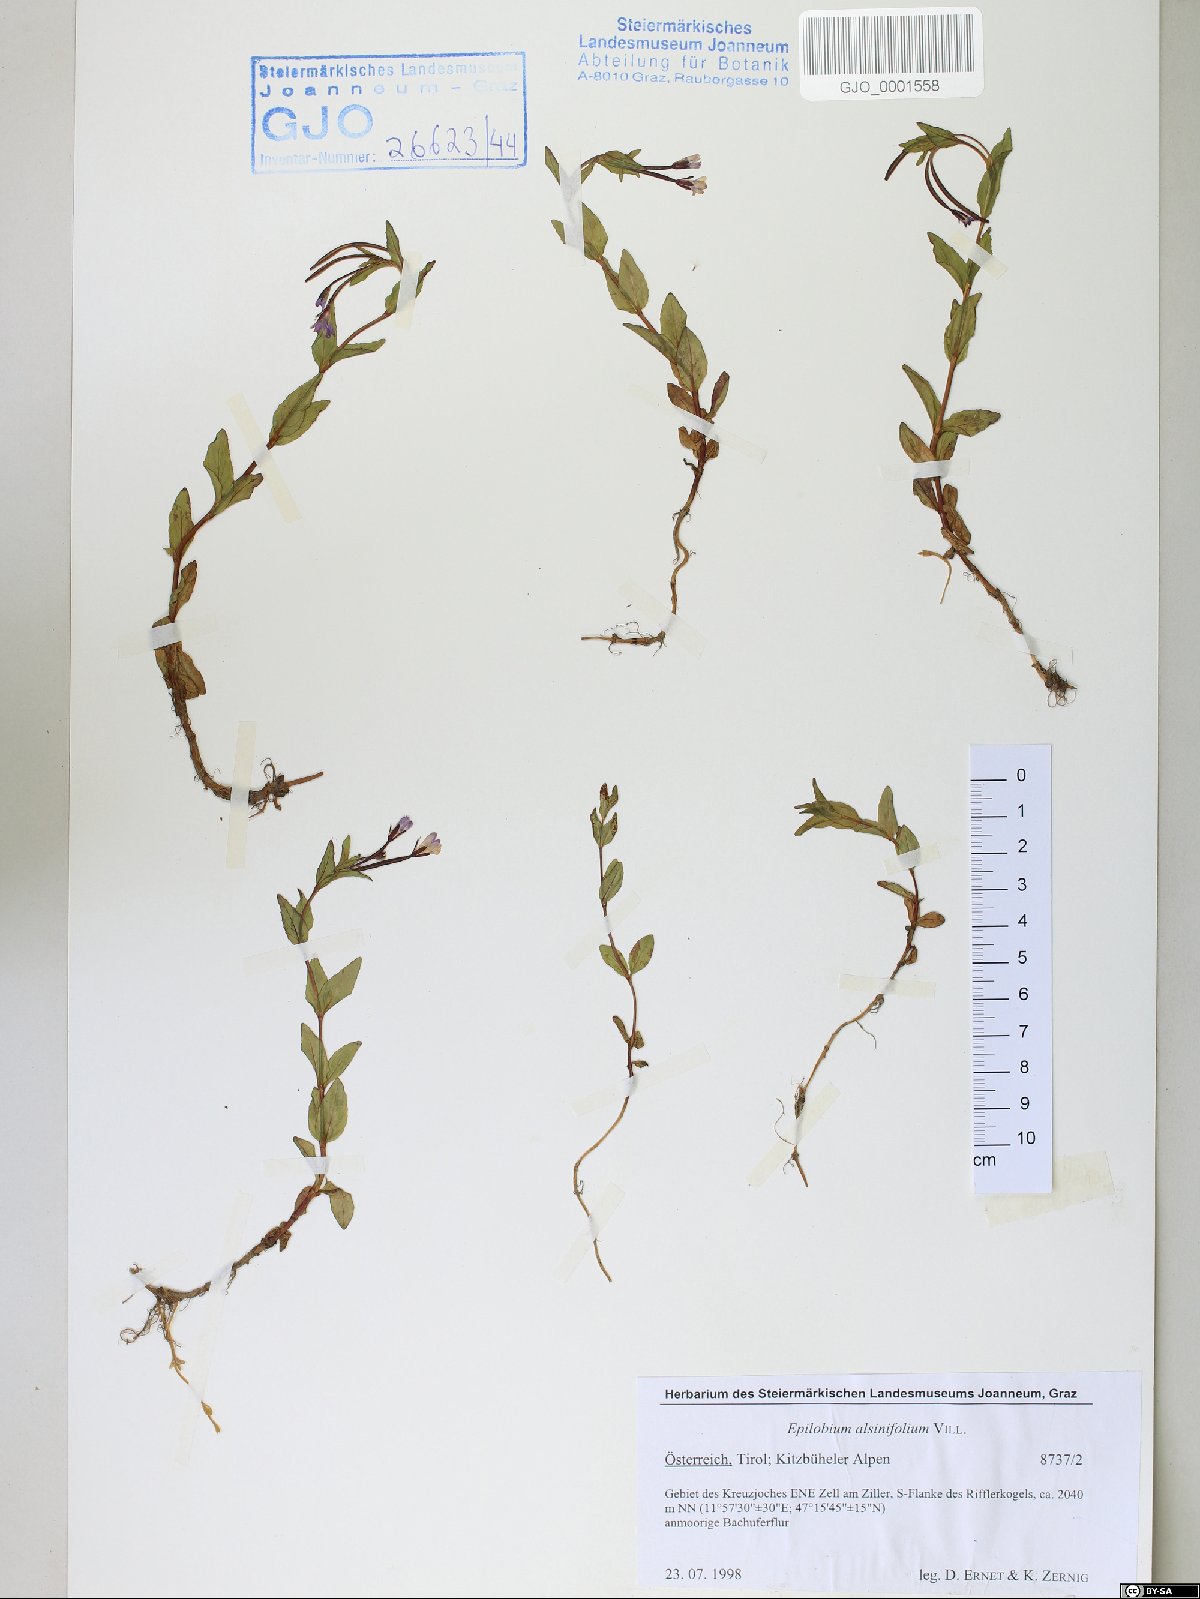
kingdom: Plantae
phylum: Tracheophyta
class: Magnoliopsida
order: Myrtales
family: Onagraceae
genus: Epilobium
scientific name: Epilobium alsinifolium
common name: Chickweed willowherb
